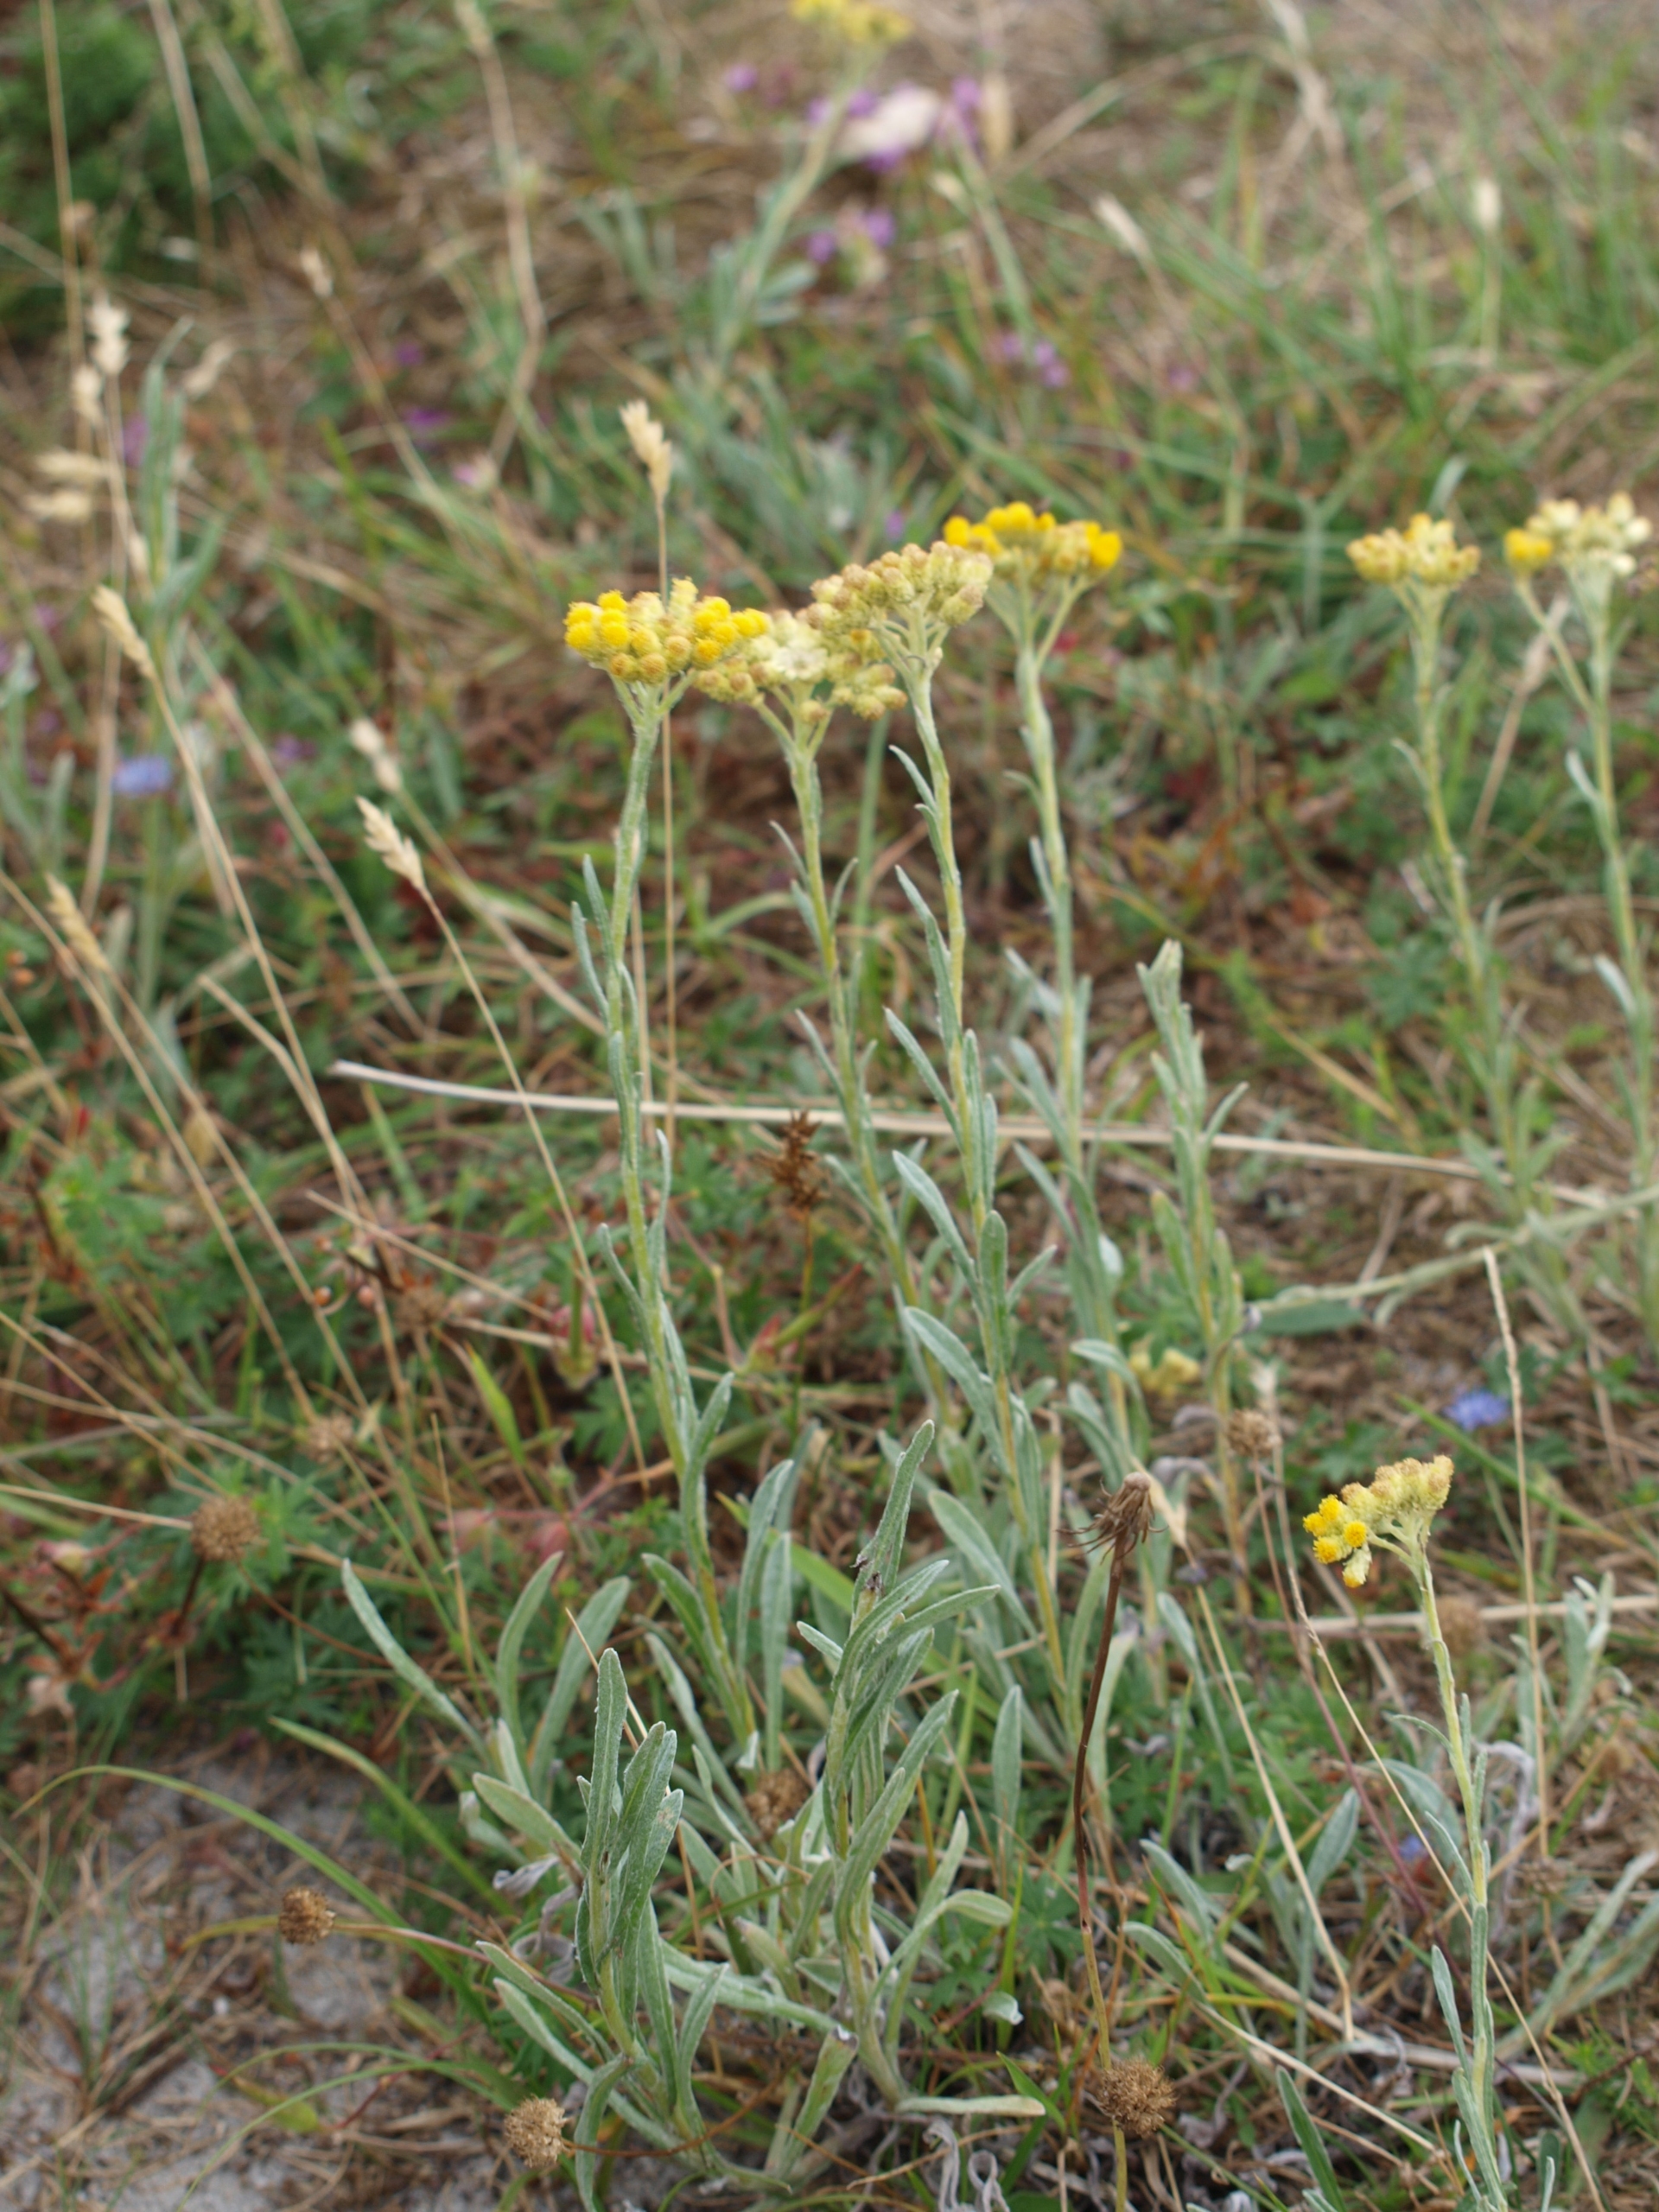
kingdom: Plantae
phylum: Tracheophyta
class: Magnoliopsida
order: Asterales
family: Asteraceae
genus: Helichrysum
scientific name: Helichrysum arenarium
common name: Gul evighedsblomst
